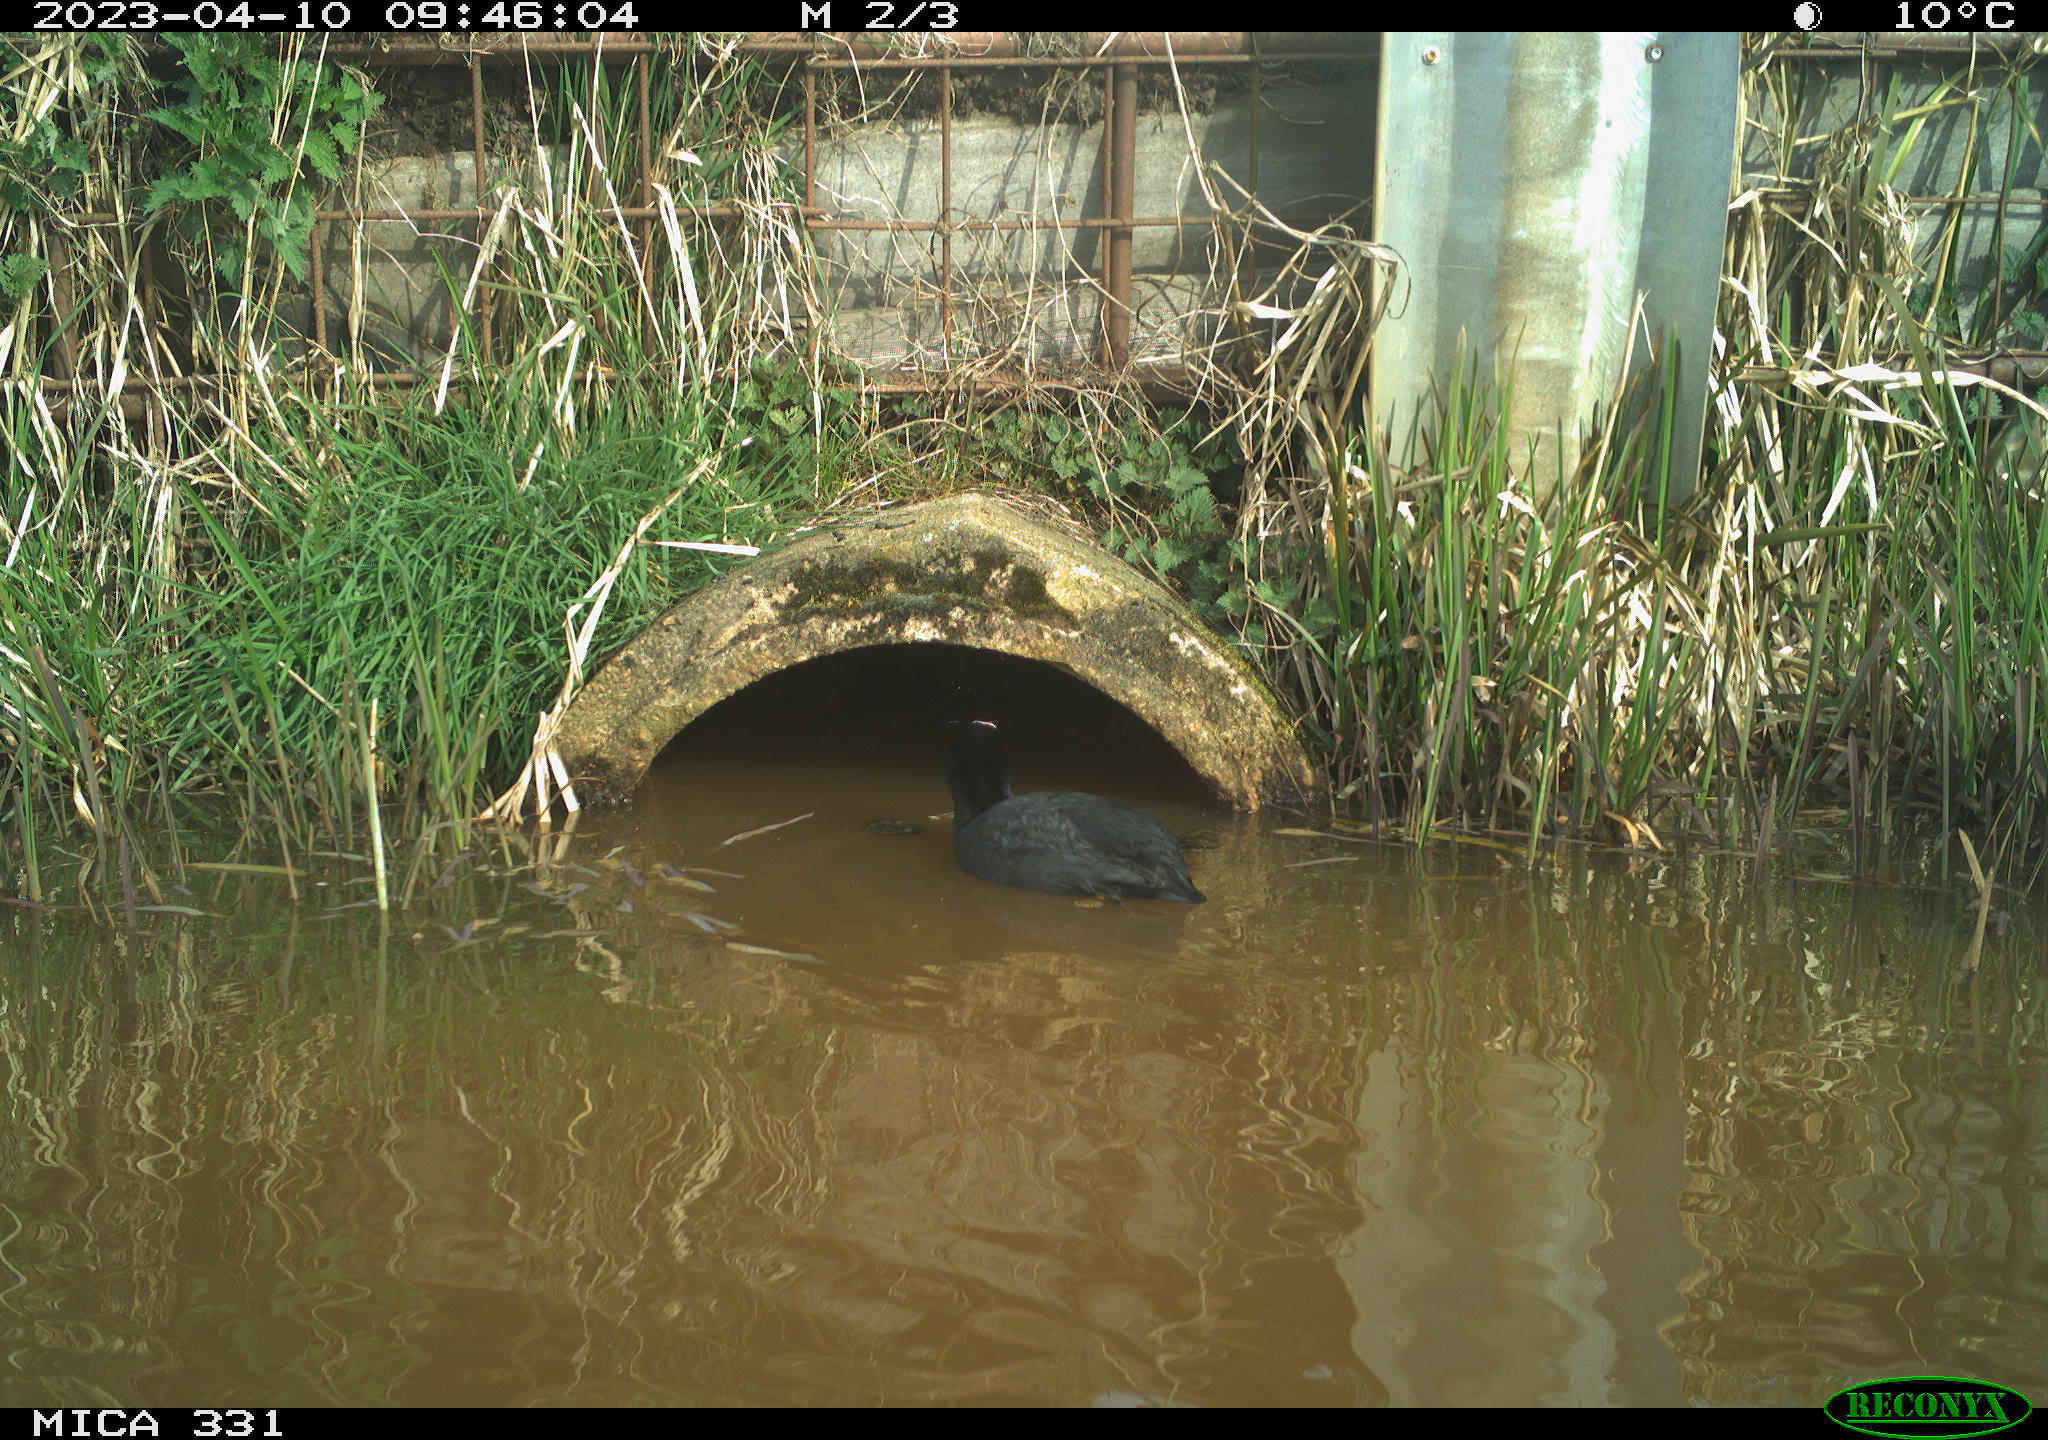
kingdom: Animalia
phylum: Chordata
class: Aves
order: Gruiformes
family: Rallidae
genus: Fulica
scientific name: Fulica atra
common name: Eurasian coot
